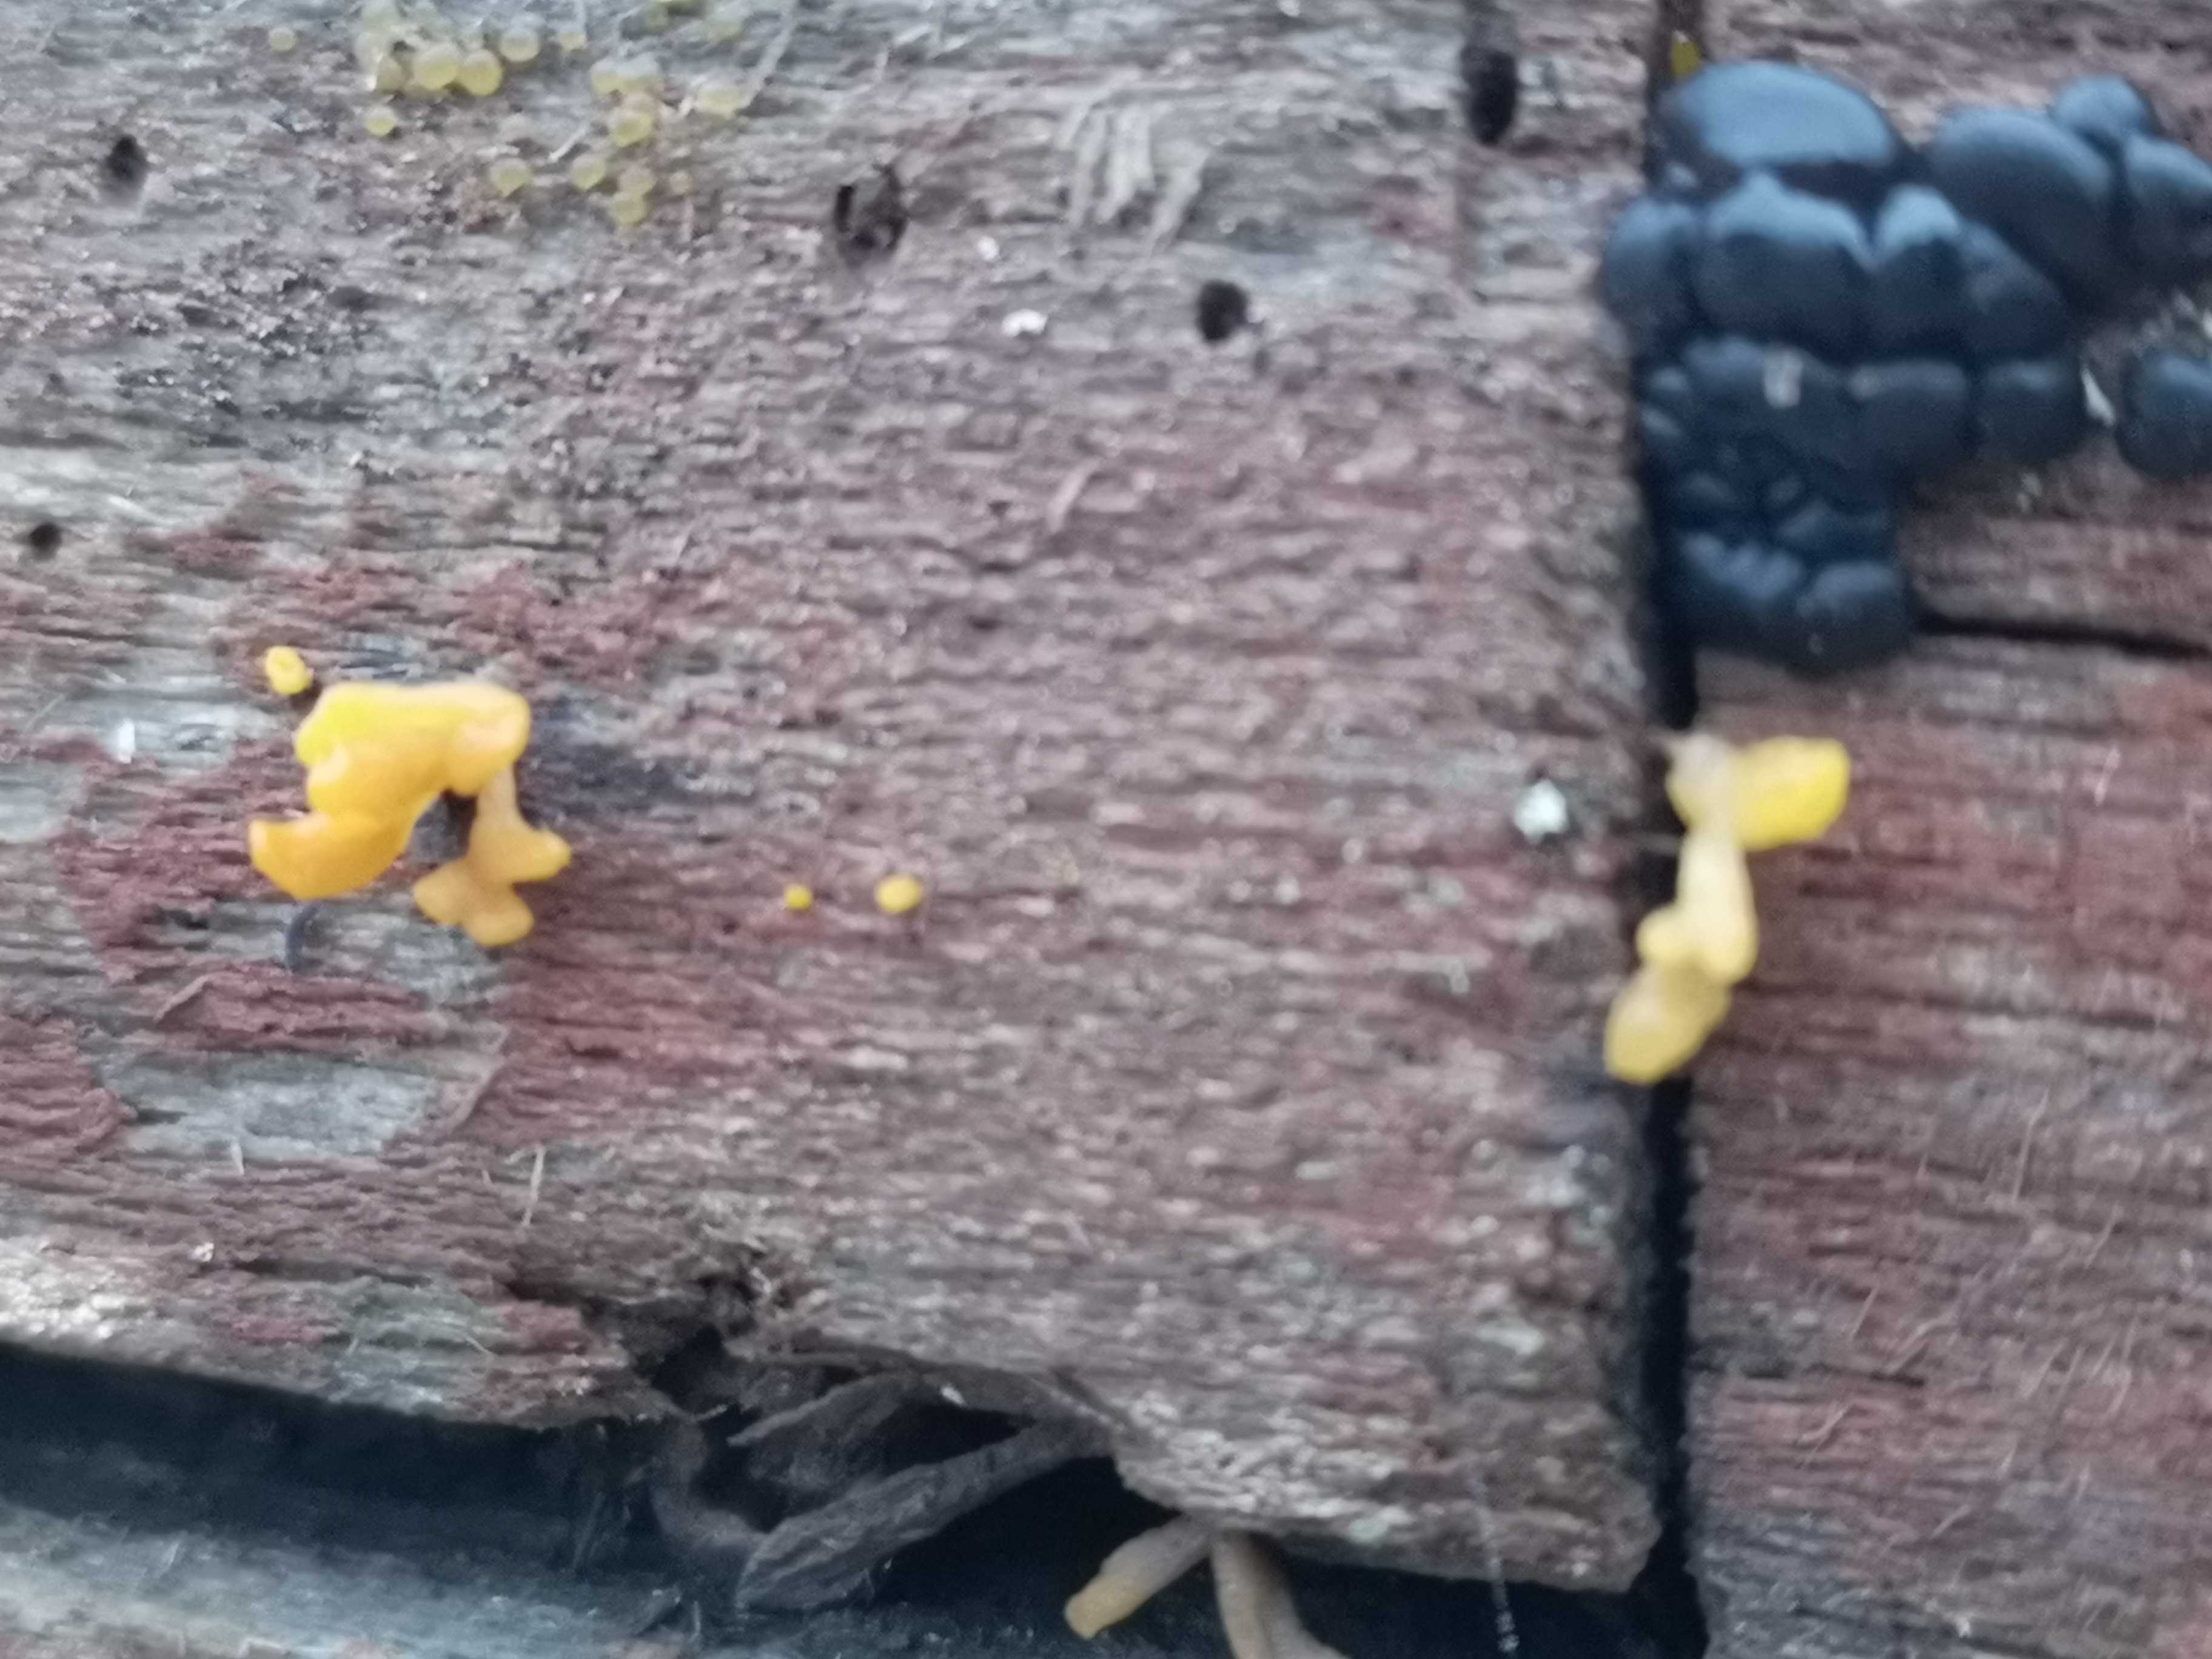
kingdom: Fungi
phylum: Basidiomycota
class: Dacrymycetes
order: Dacrymycetales
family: Dacrymycetaceae
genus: Calocera
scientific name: Calocera furcata
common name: fyrre-guldgaffel
